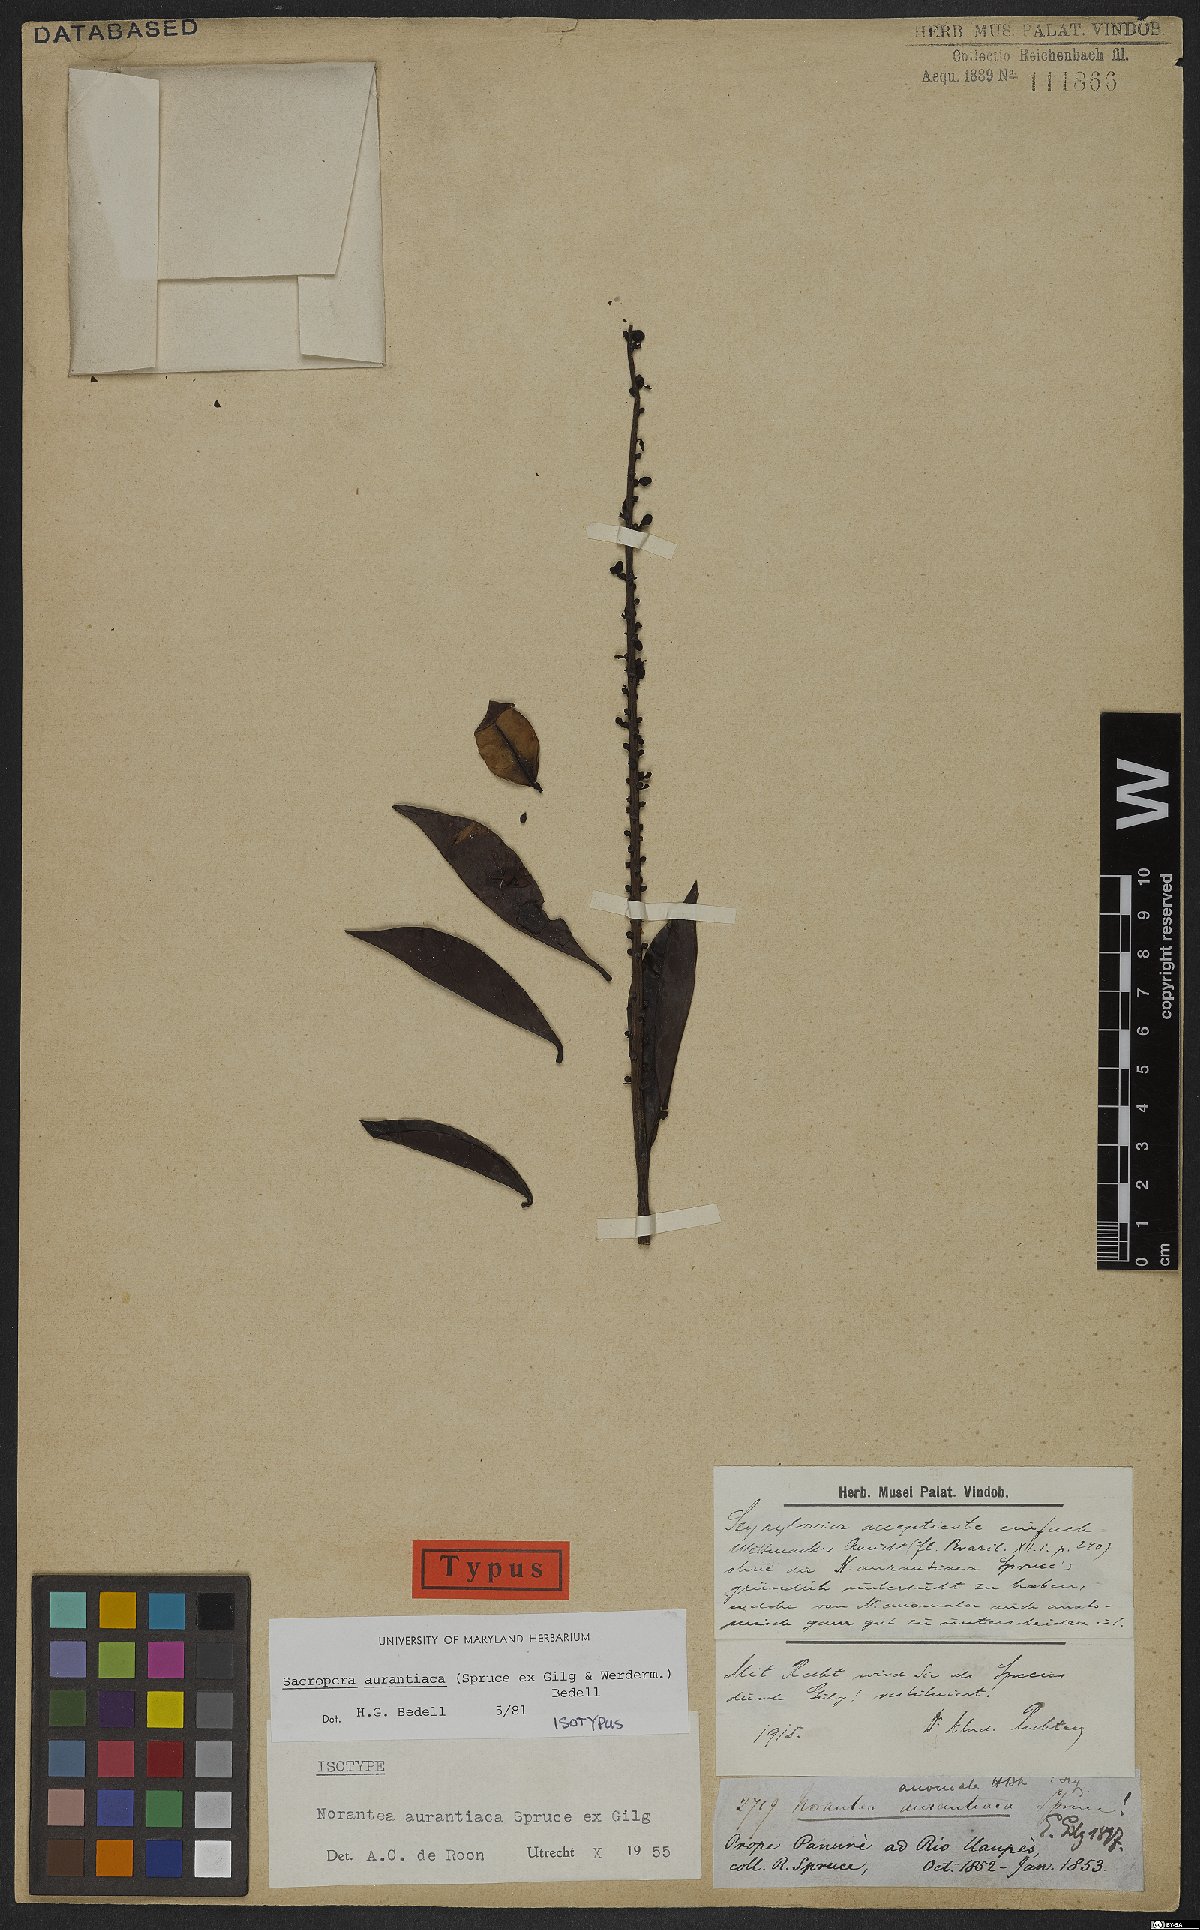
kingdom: Plantae
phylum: Tracheophyta
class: Magnoliopsida
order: Ericales
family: Marcgraviaceae
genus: Sarcopera
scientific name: Sarcopera aurantiaca
